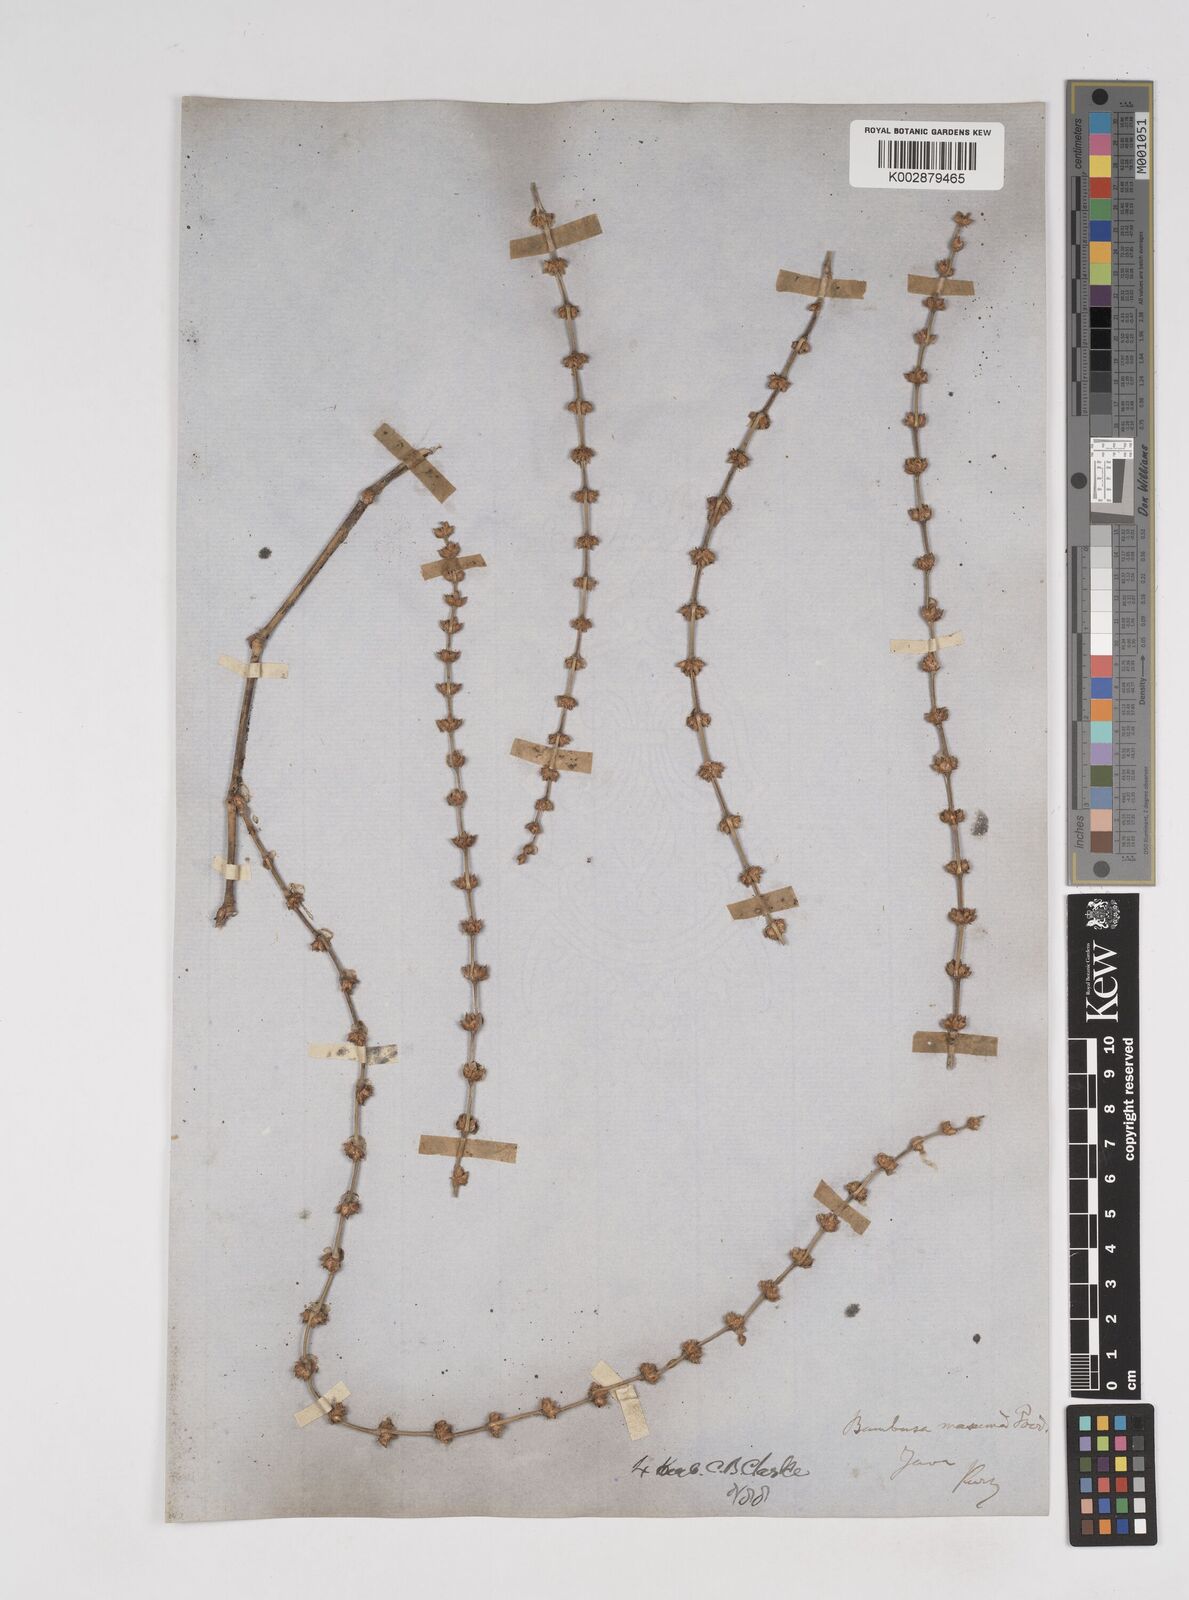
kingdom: Plantae
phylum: Tracheophyta
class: Liliopsida
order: Poales
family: Poaceae
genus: Dendrocalamus
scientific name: Dendrocalamus hamiltonii
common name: Tama bamboo
